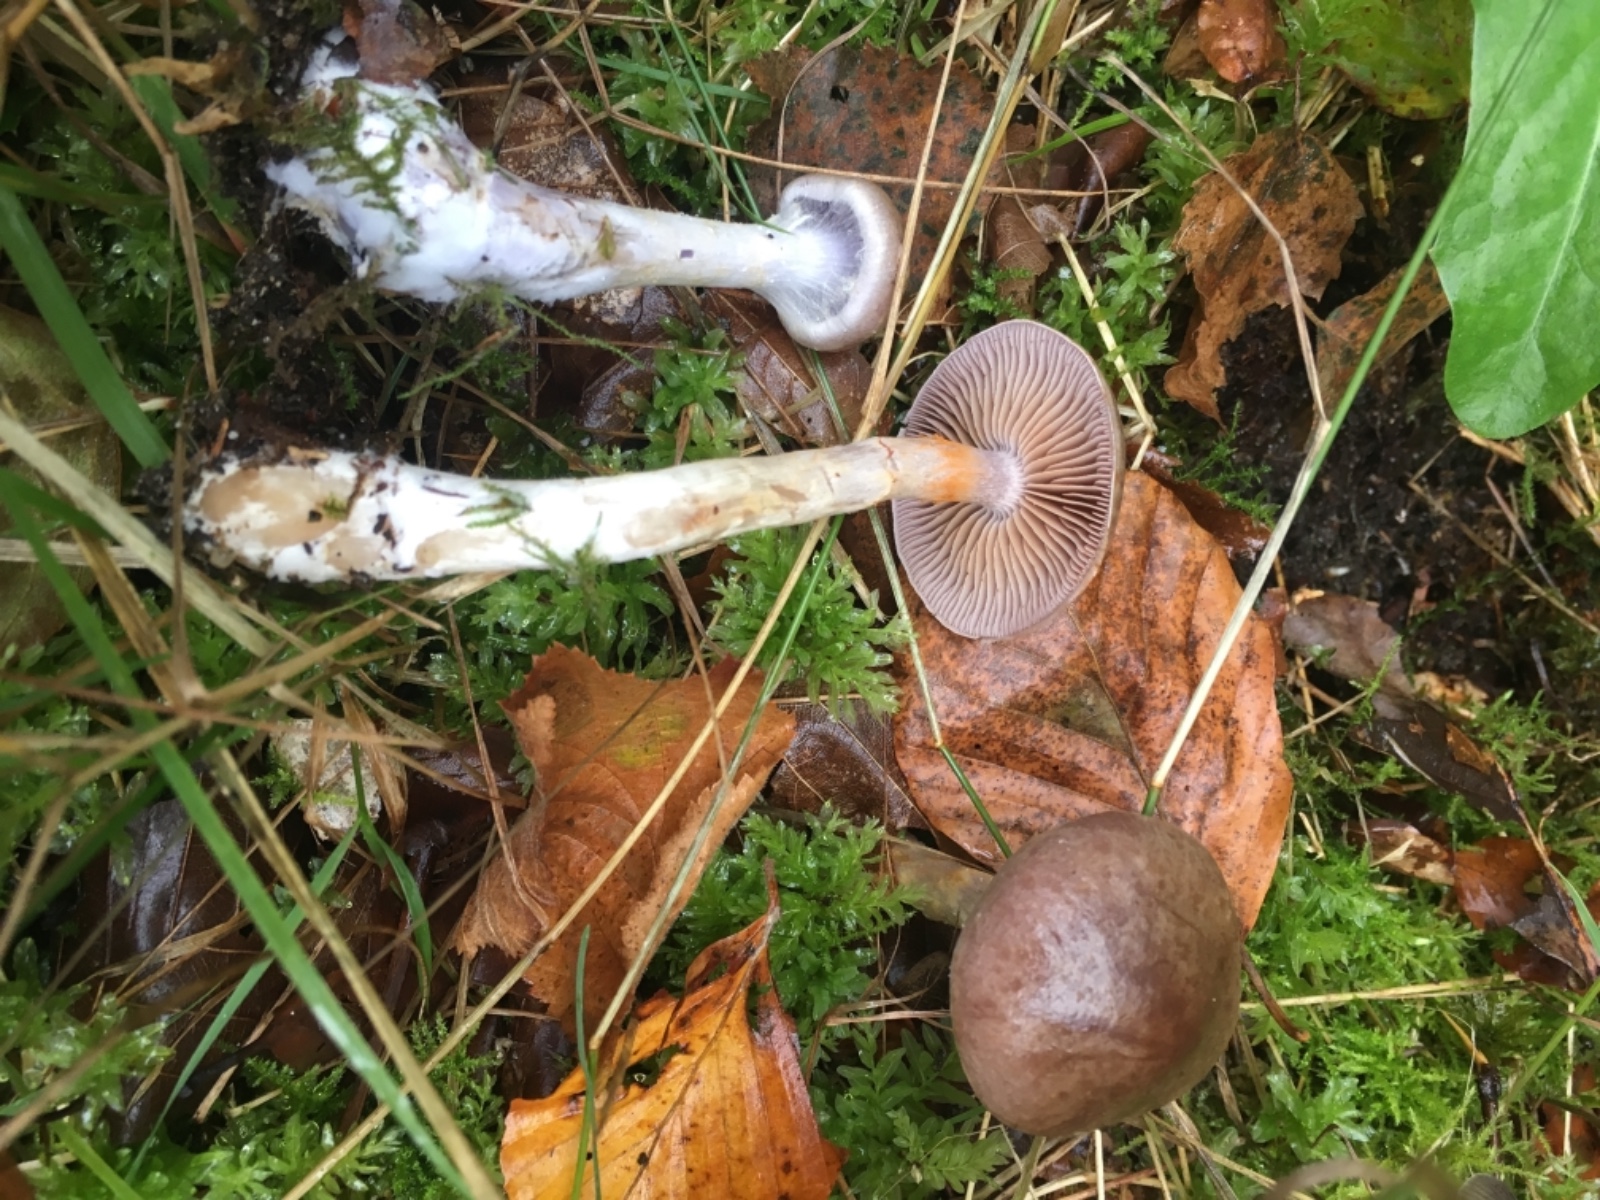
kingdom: Fungi
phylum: Basidiomycota
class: Agaricomycetes
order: Agaricales
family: Cortinariaceae
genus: Cortinarius
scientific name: Cortinarius
